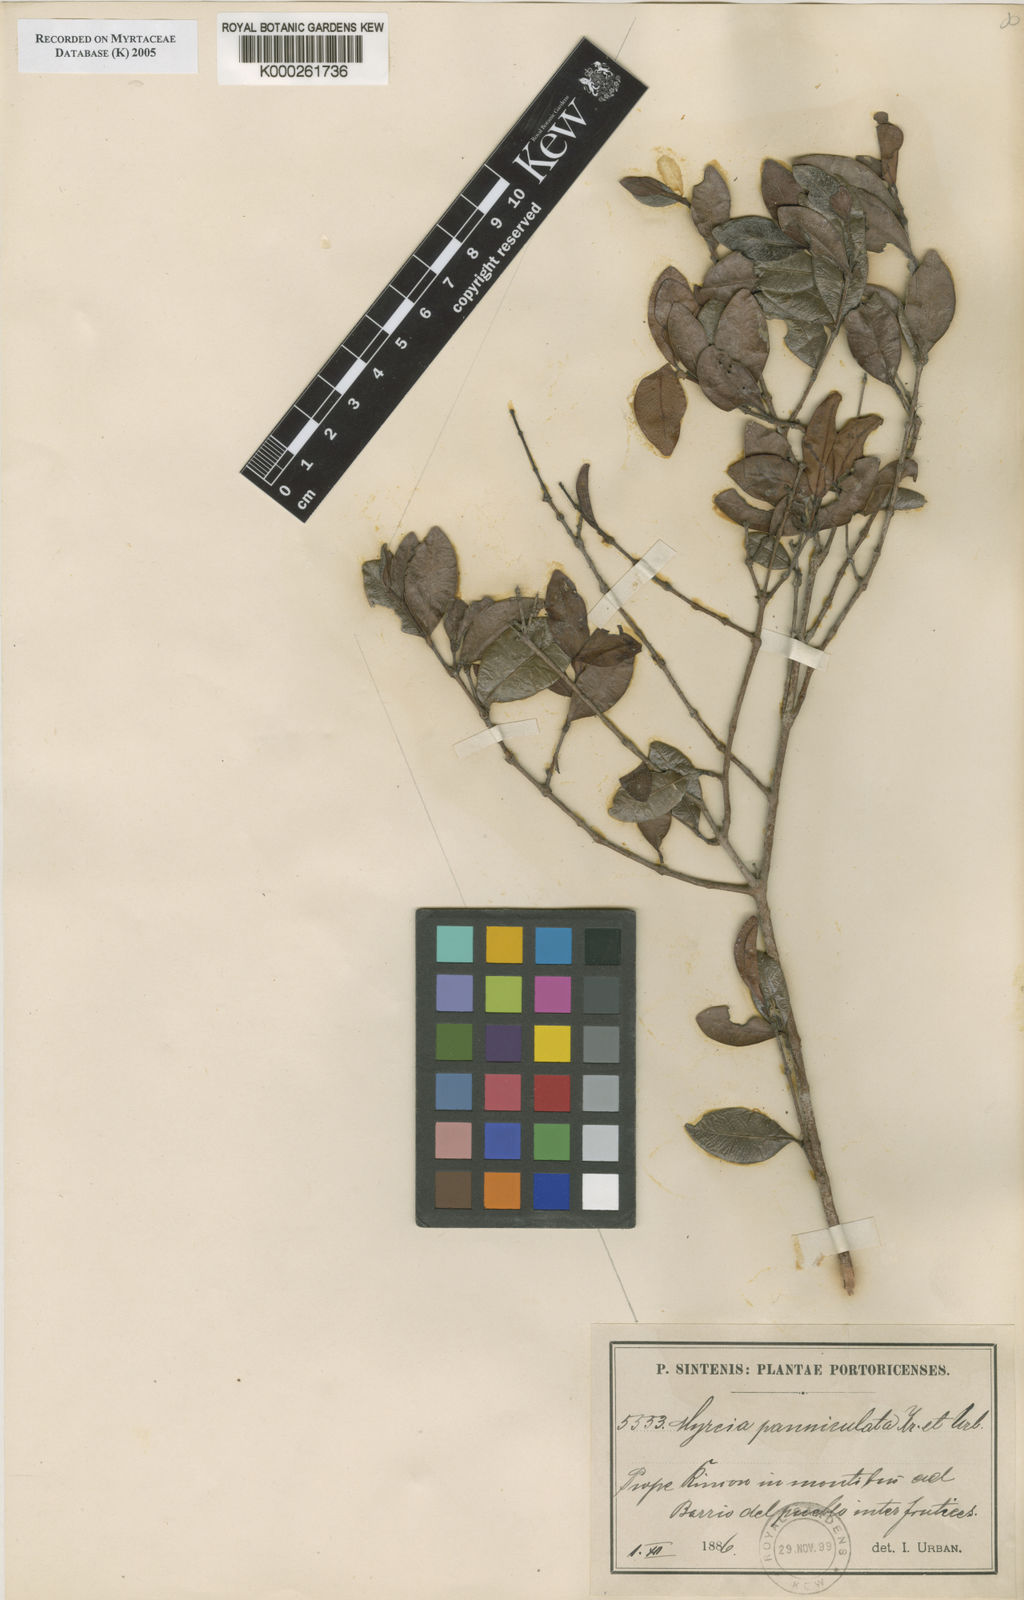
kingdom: Plantae
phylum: Tracheophyta
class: Magnoliopsida
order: Myrtales
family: Myrtaceae
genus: Myrcia
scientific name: Myrcia guianensis
